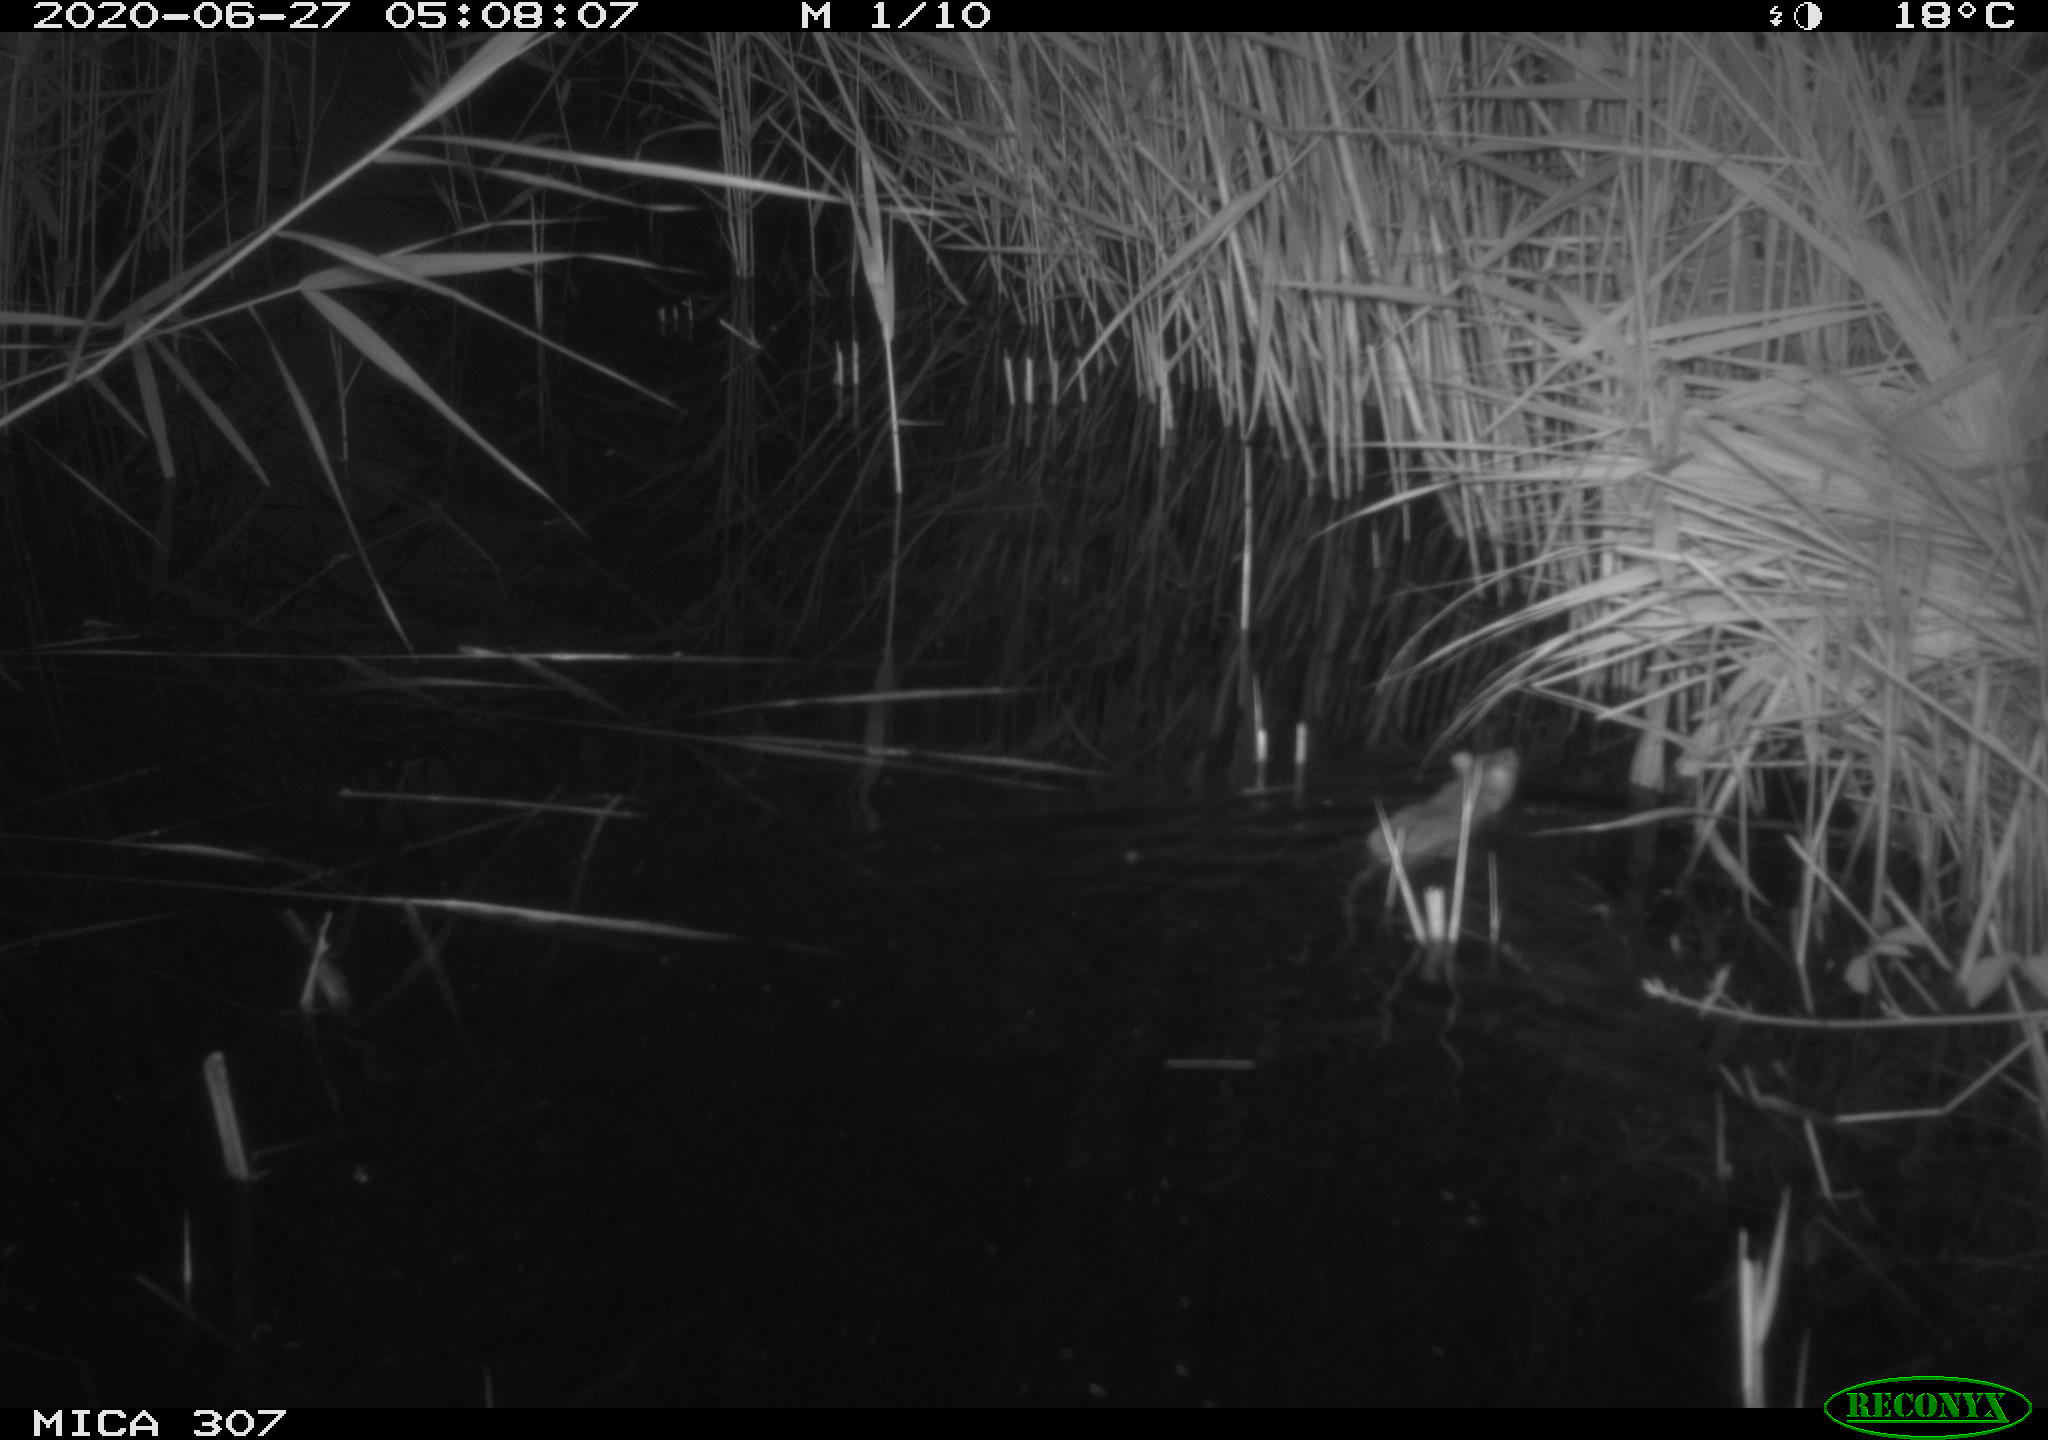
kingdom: Animalia
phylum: Chordata
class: Mammalia
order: Rodentia
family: Muridae
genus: Rattus
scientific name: Rattus norvegicus
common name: Brown rat
